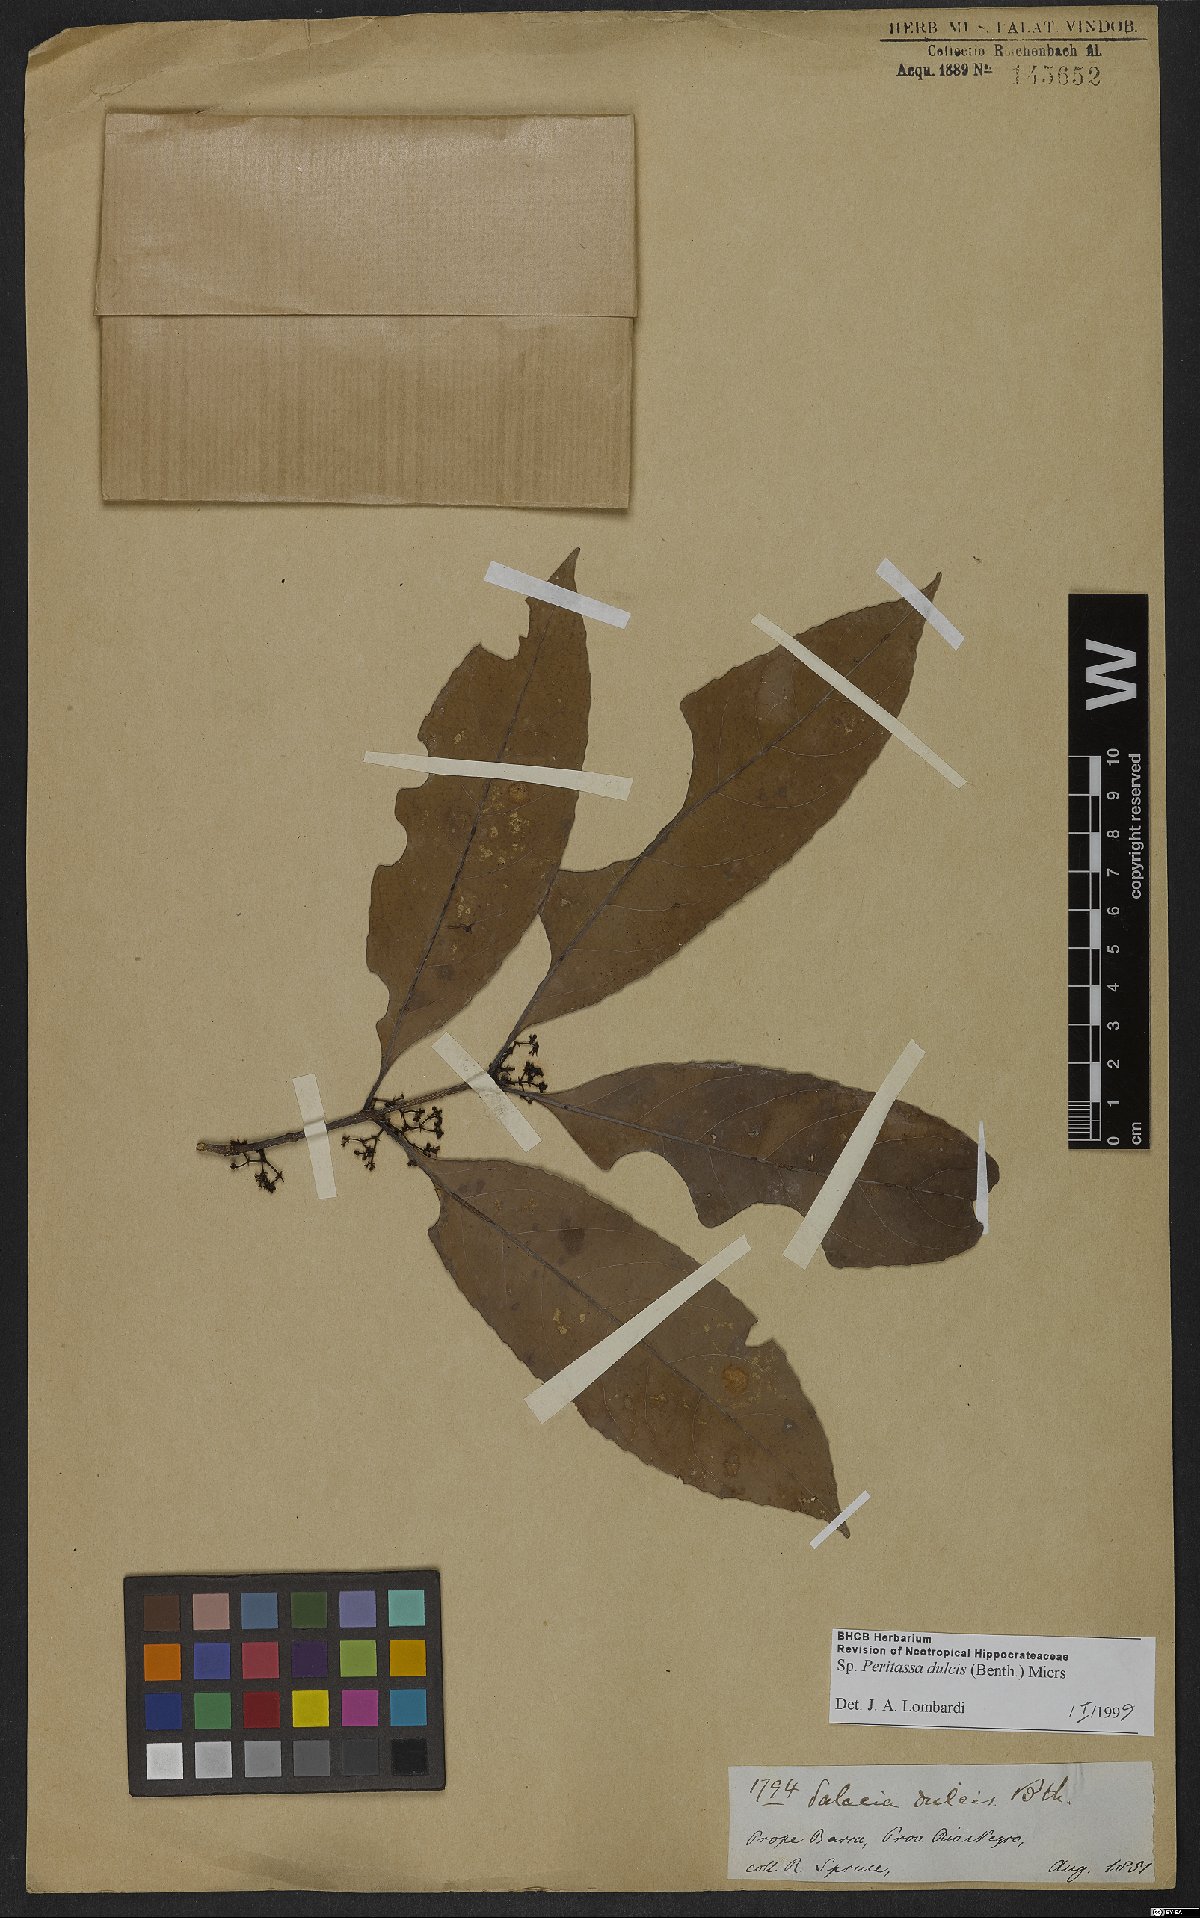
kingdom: Plantae
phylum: Tracheophyta
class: Magnoliopsida
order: Celastrales
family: Celastraceae
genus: Peritassa
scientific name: Peritassa dulcis
